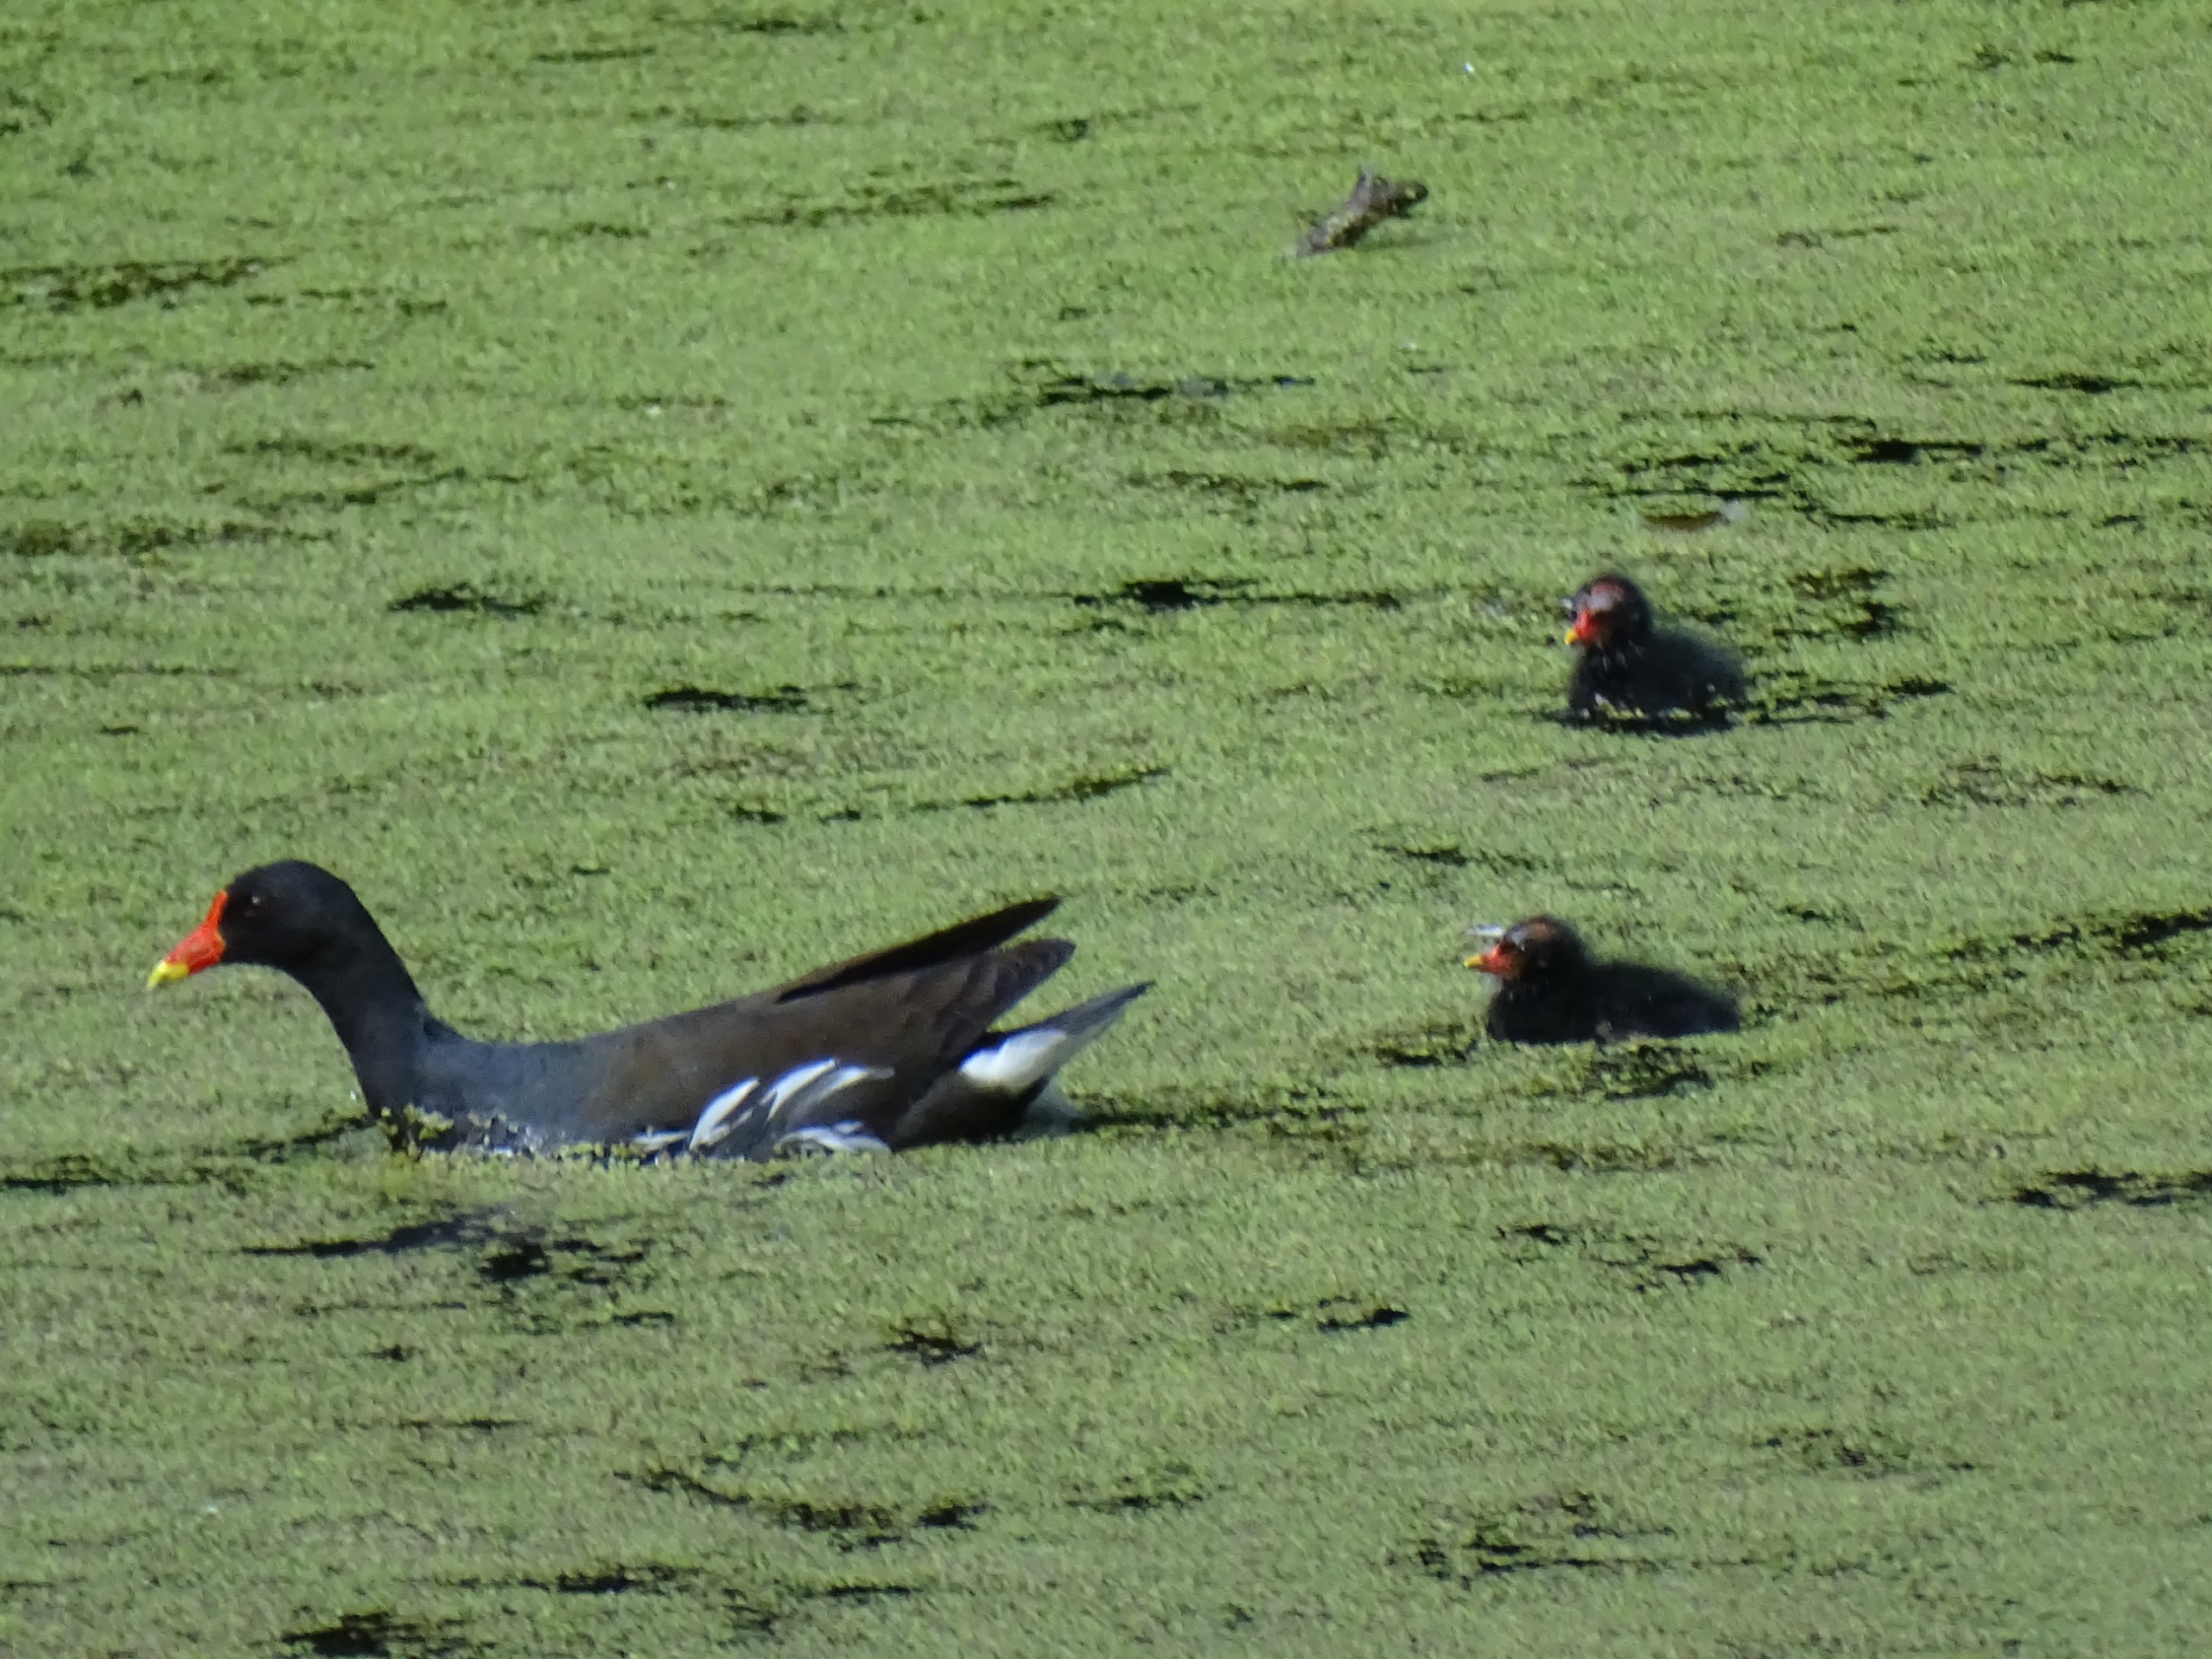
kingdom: Animalia
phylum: Chordata
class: Aves
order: Gruiformes
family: Rallidae
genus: Gallinula
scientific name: Gallinula chloropus
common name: Grønbenet rørhøne
